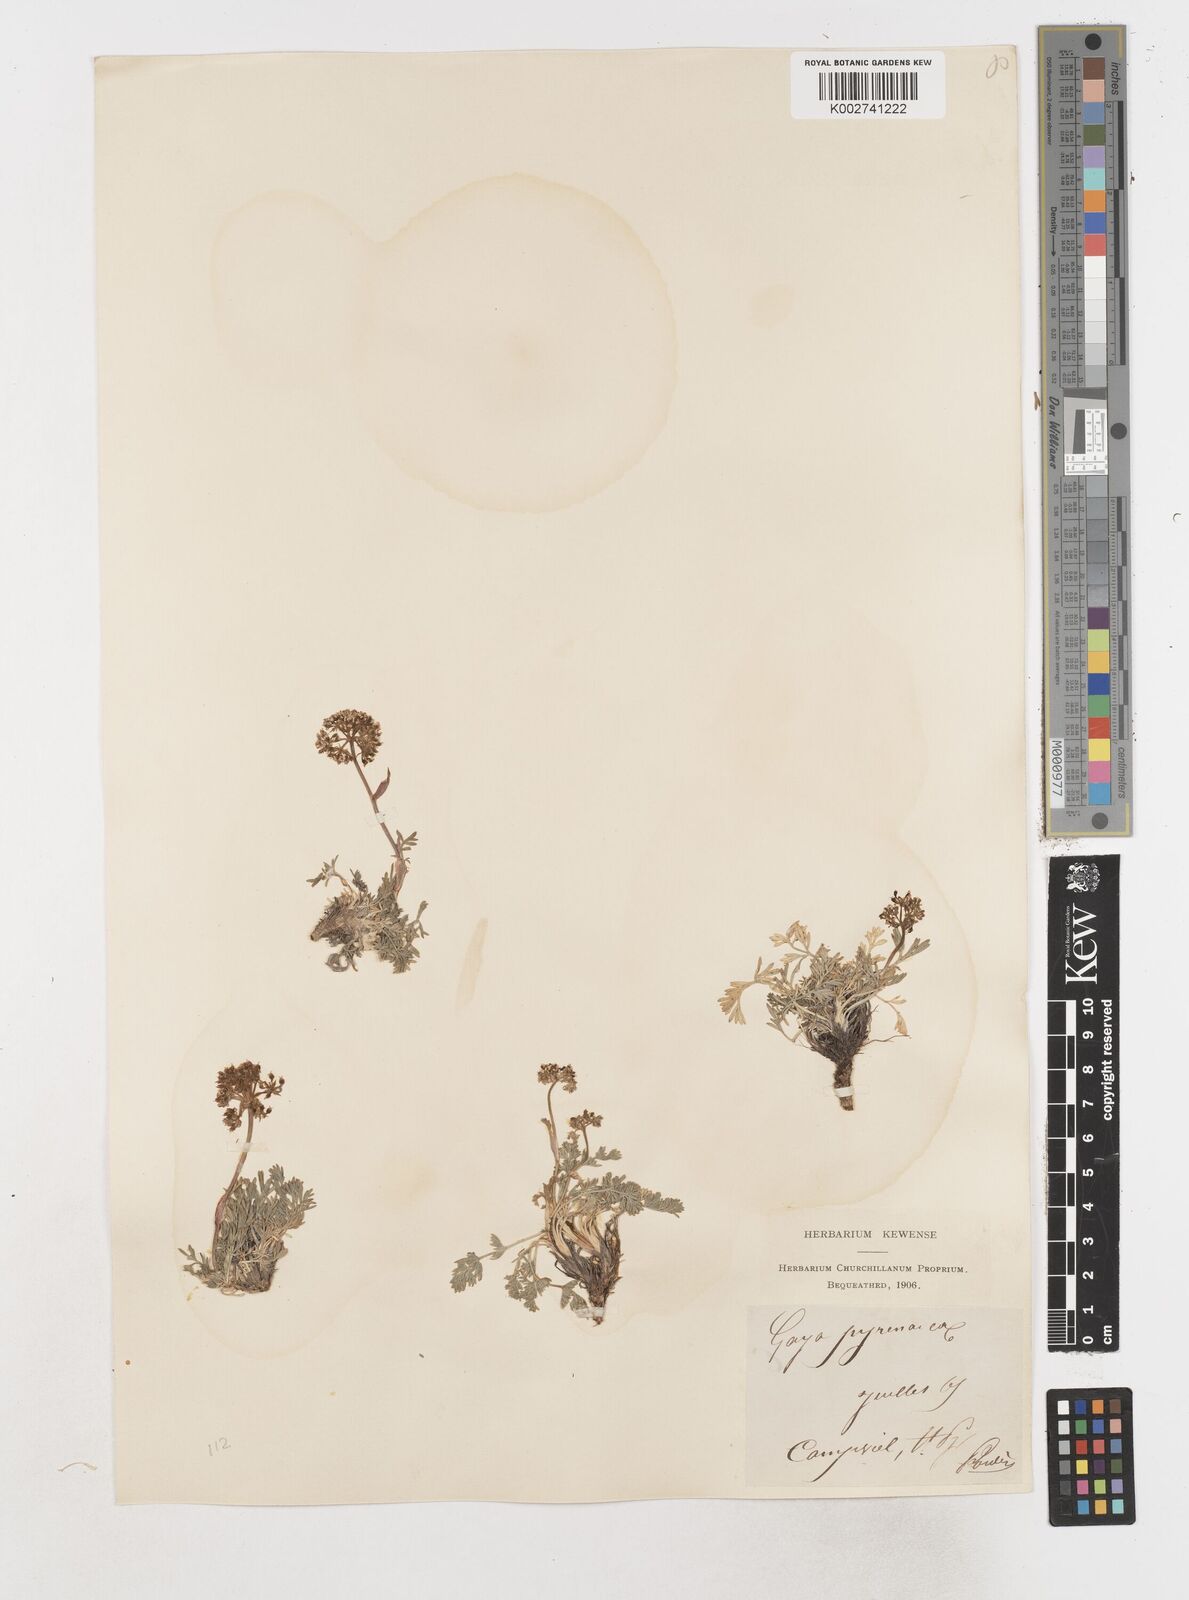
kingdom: Plantae
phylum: Tracheophyta
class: Magnoliopsida
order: Apiales
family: Apiaceae
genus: Pachypleurum
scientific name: Pachypleurum mutellinoides
